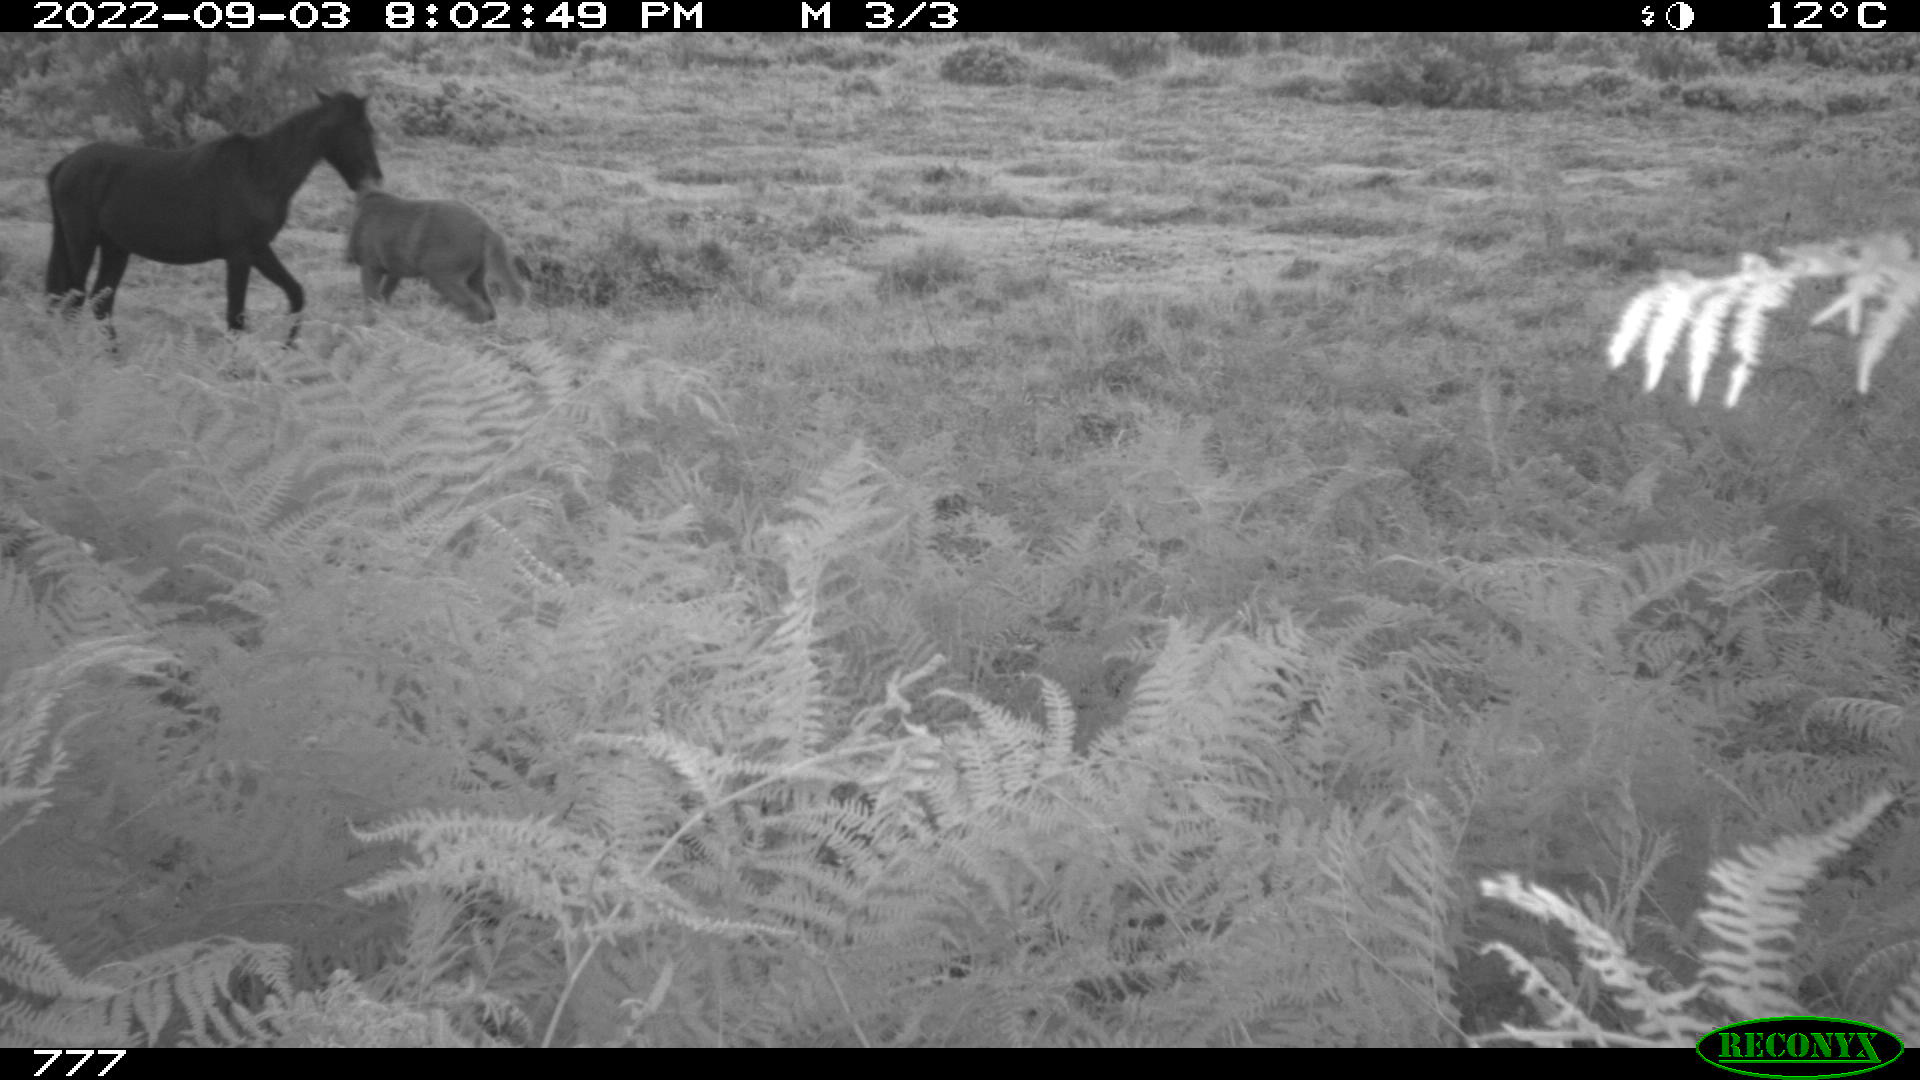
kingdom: Animalia
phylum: Chordata
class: Mammalia
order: Perissodactyla
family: Equidae
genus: Equus
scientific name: Equus caballus
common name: Horse
